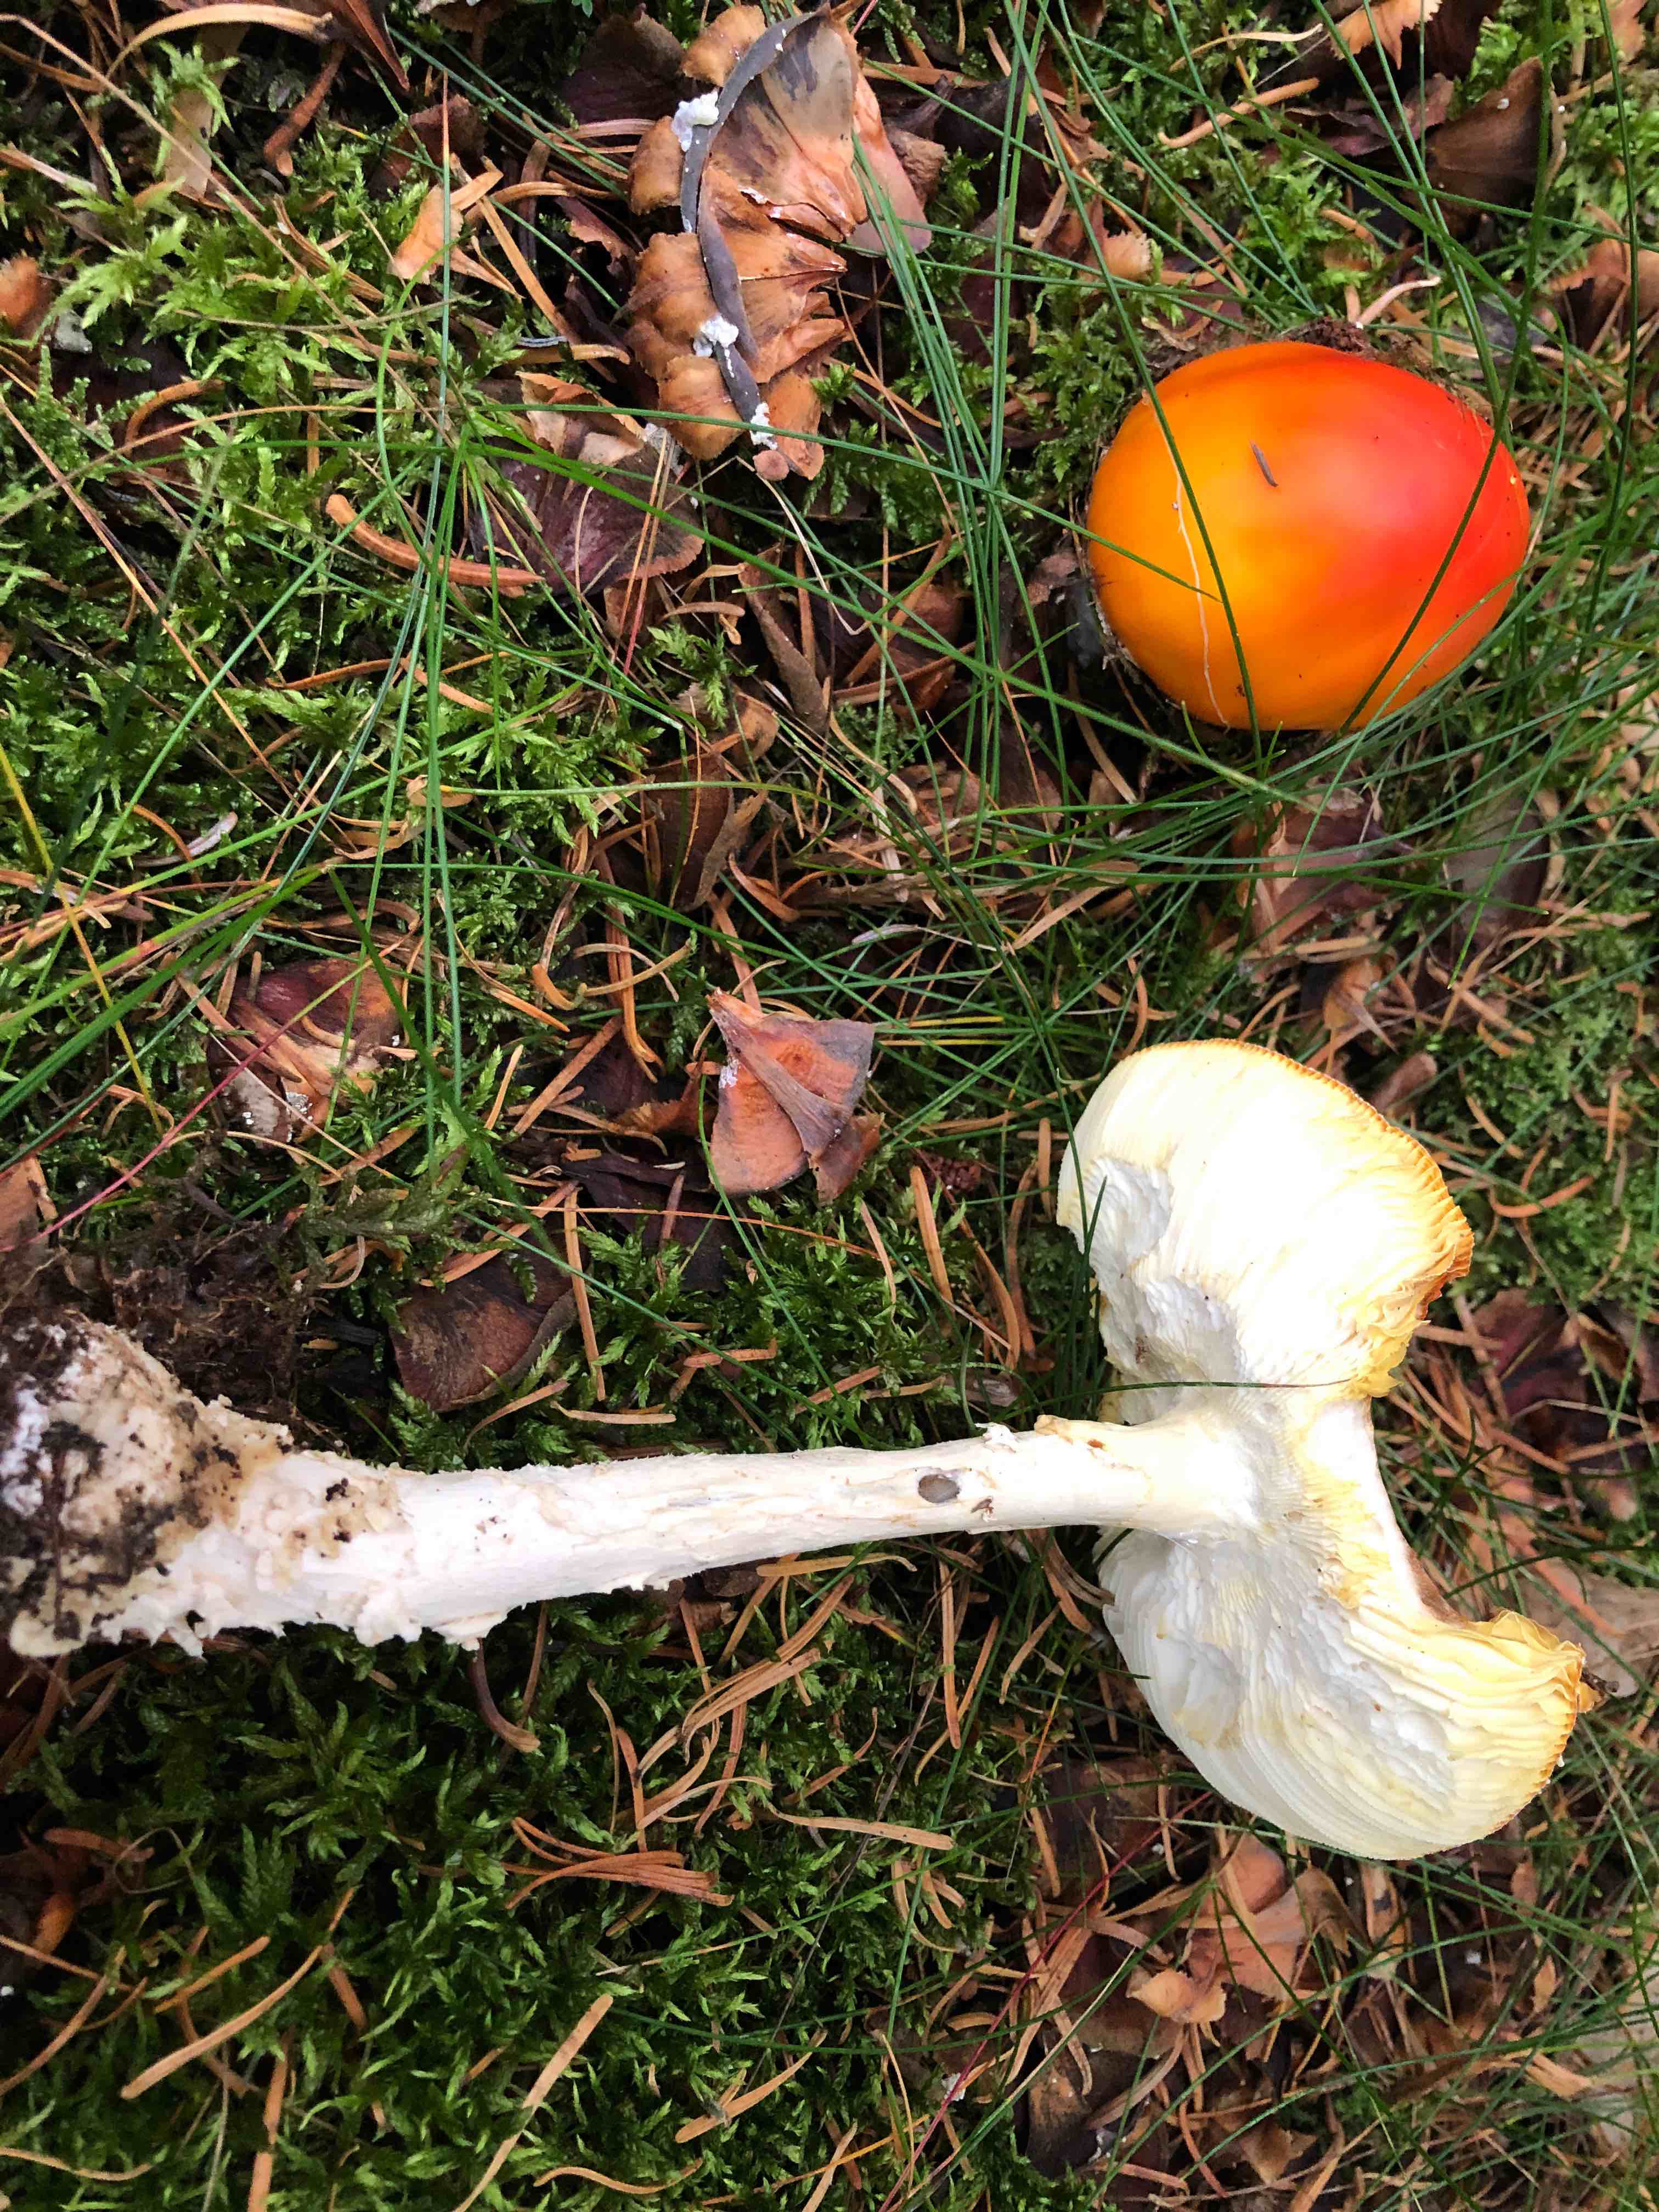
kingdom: Fungi
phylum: Basidiomycota
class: Agaricomycetes
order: Agaricales
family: Amanitaceae
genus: Amanita
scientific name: Amanita muscaria
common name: rød fluesvamp
